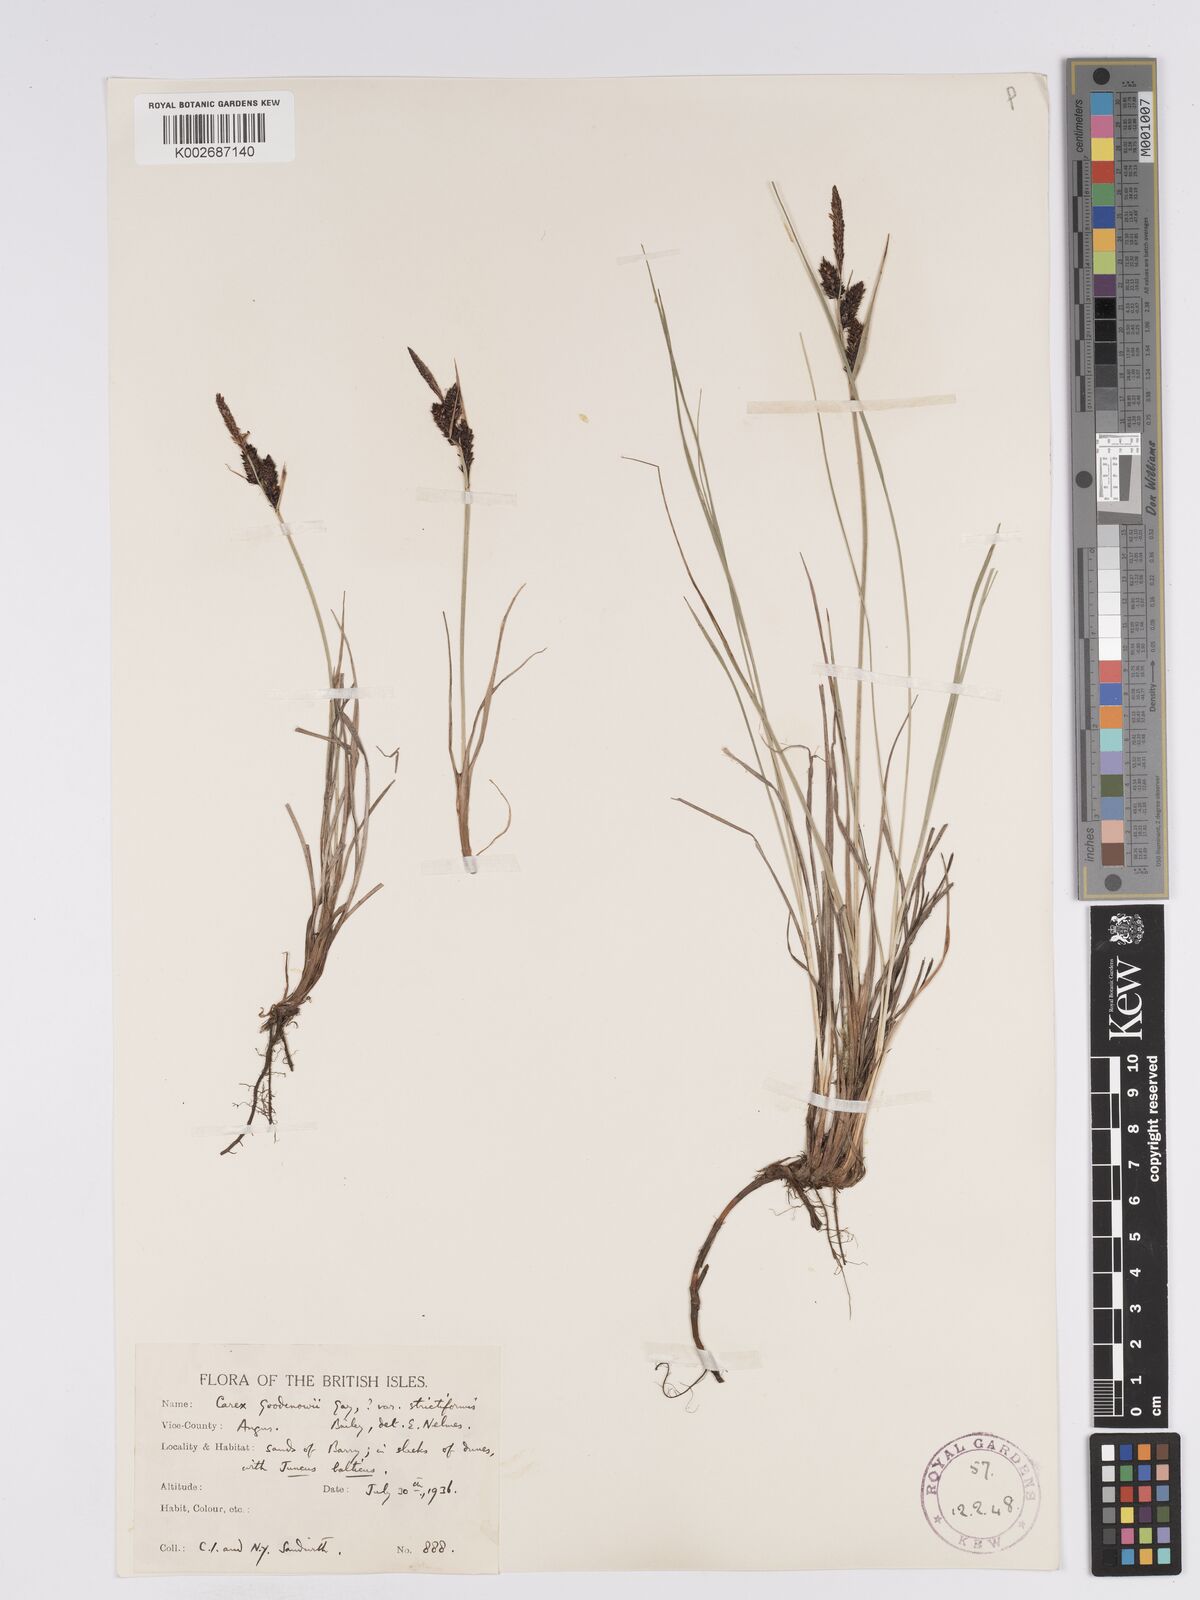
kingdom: Plantae
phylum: Tracheophyta
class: Liliopsida
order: Poales
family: Cyperaceae
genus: Carex
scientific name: Carex nigra
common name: Common sedge
